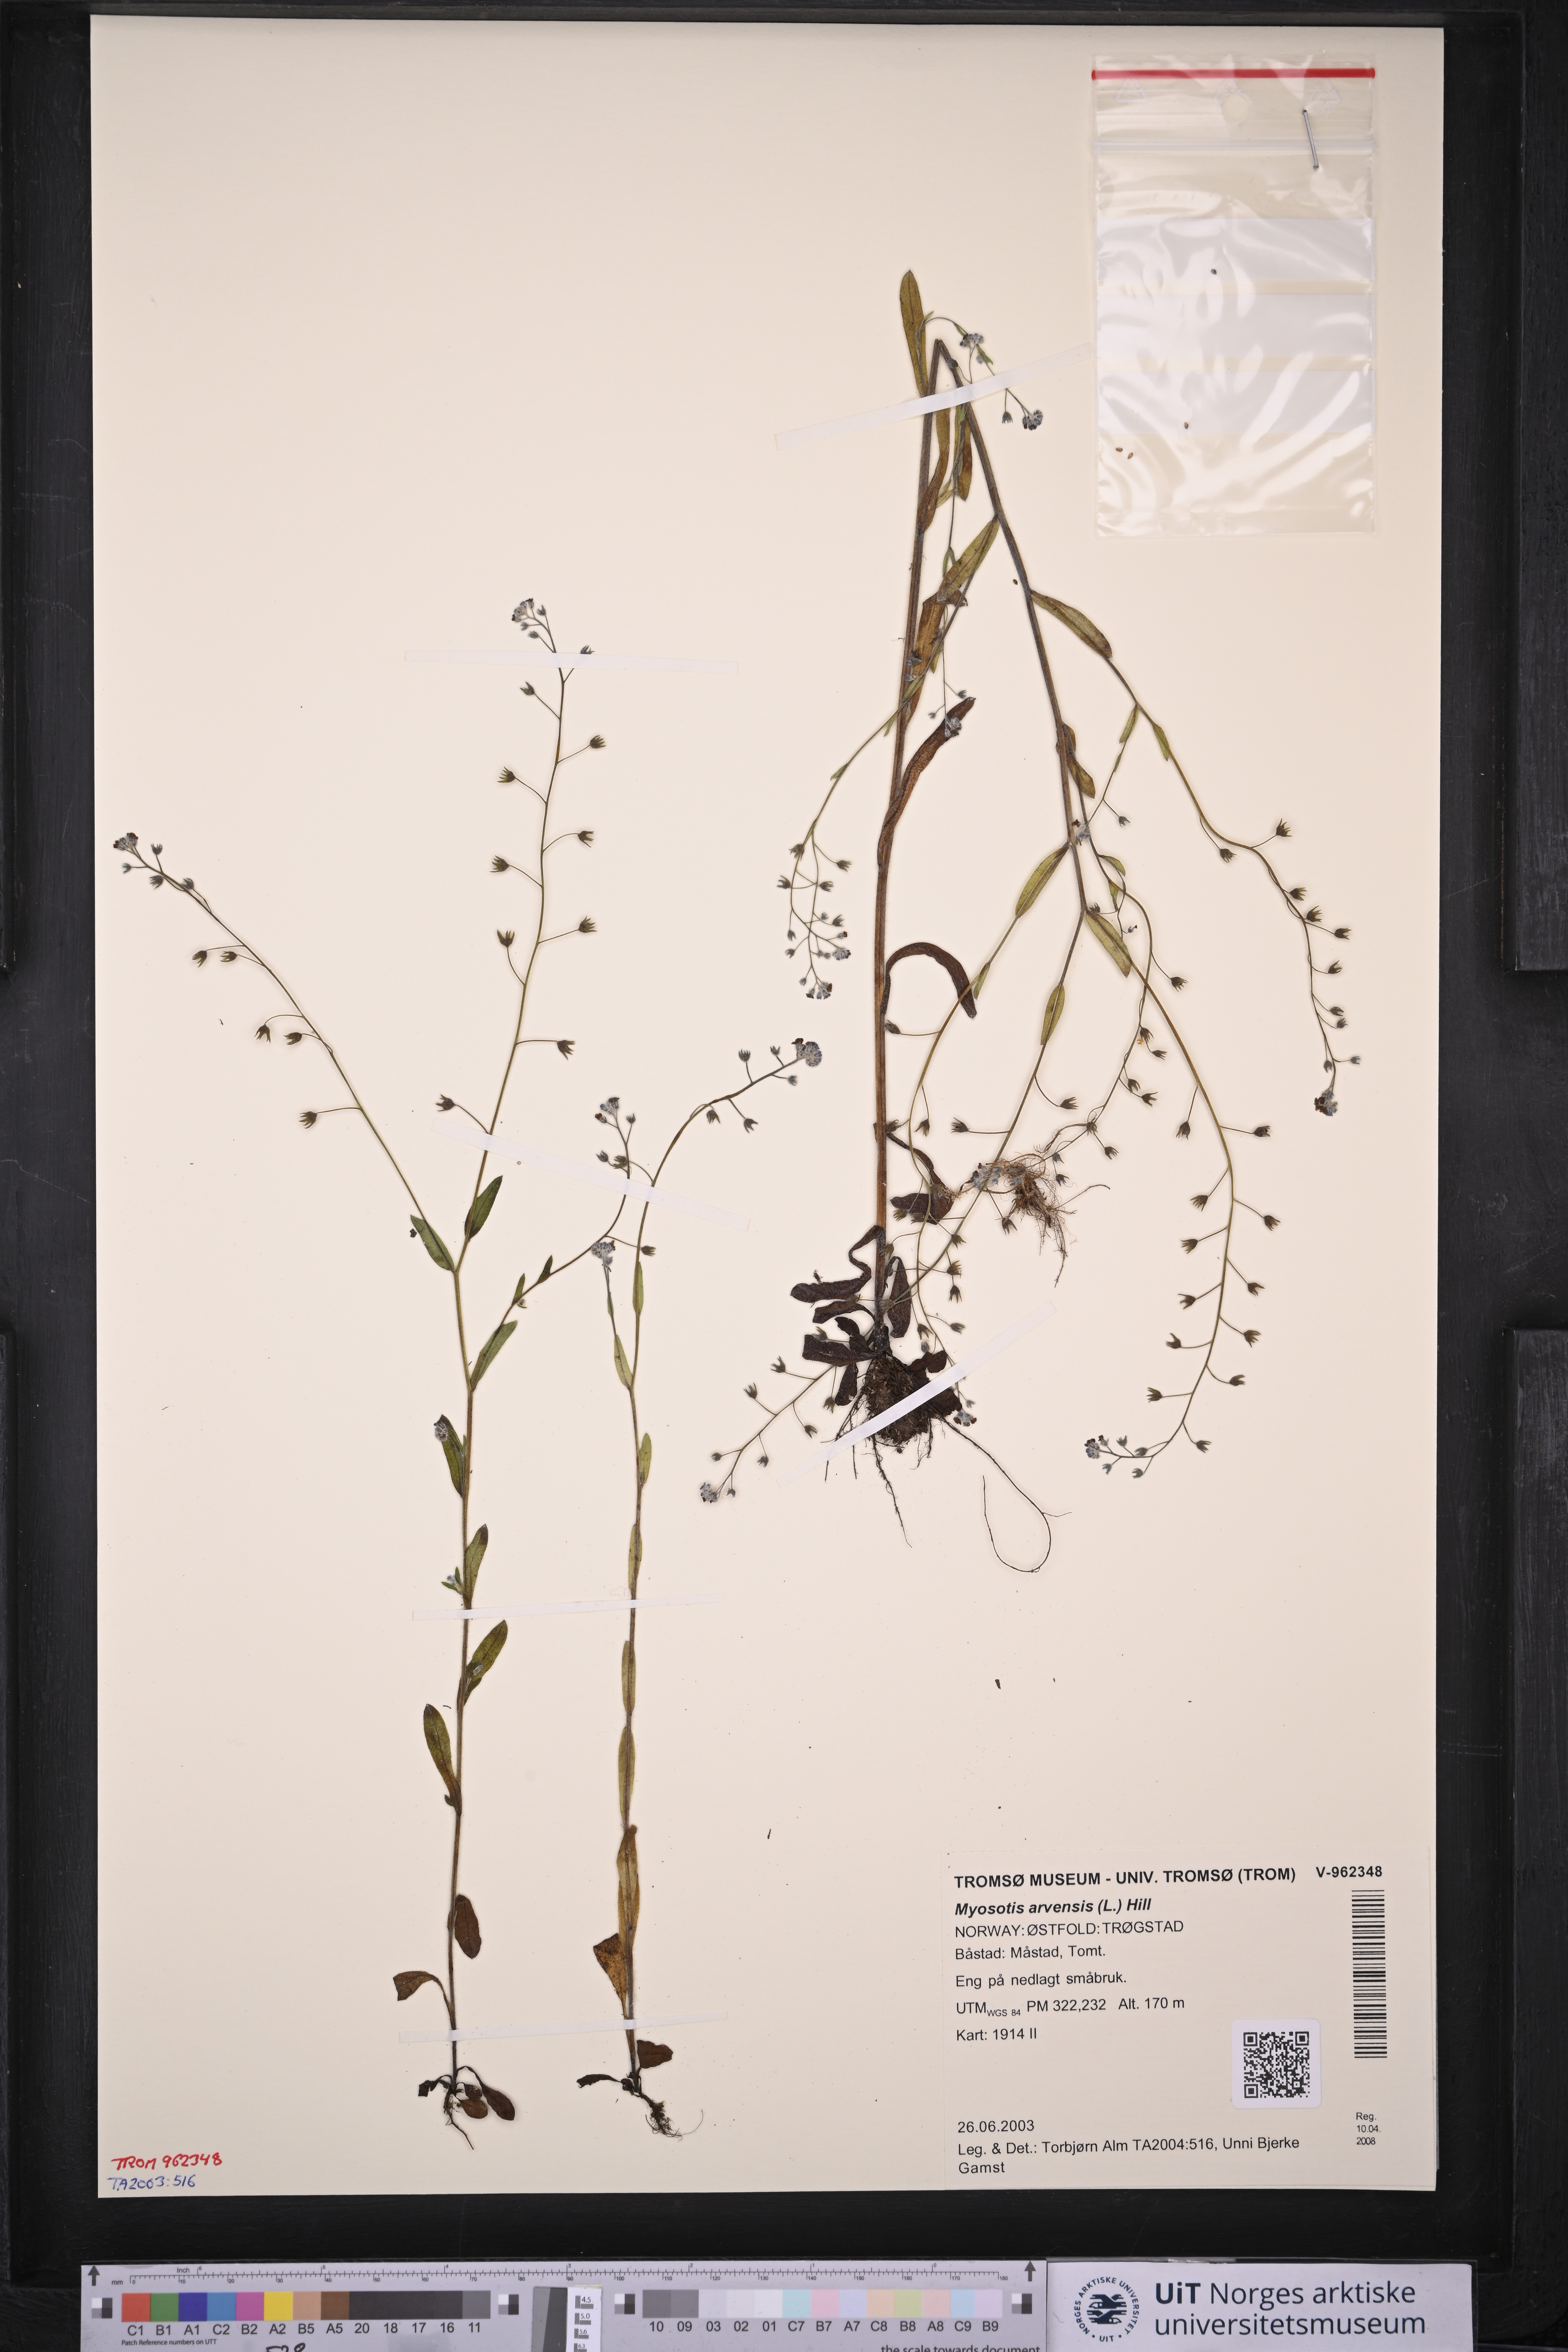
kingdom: Plantae
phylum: Tracheophyta
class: Magnoliopsida
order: Boraginales
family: Boraginaceae
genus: Myosotis
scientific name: Myosotis arvensis
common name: Field forget-me-not
